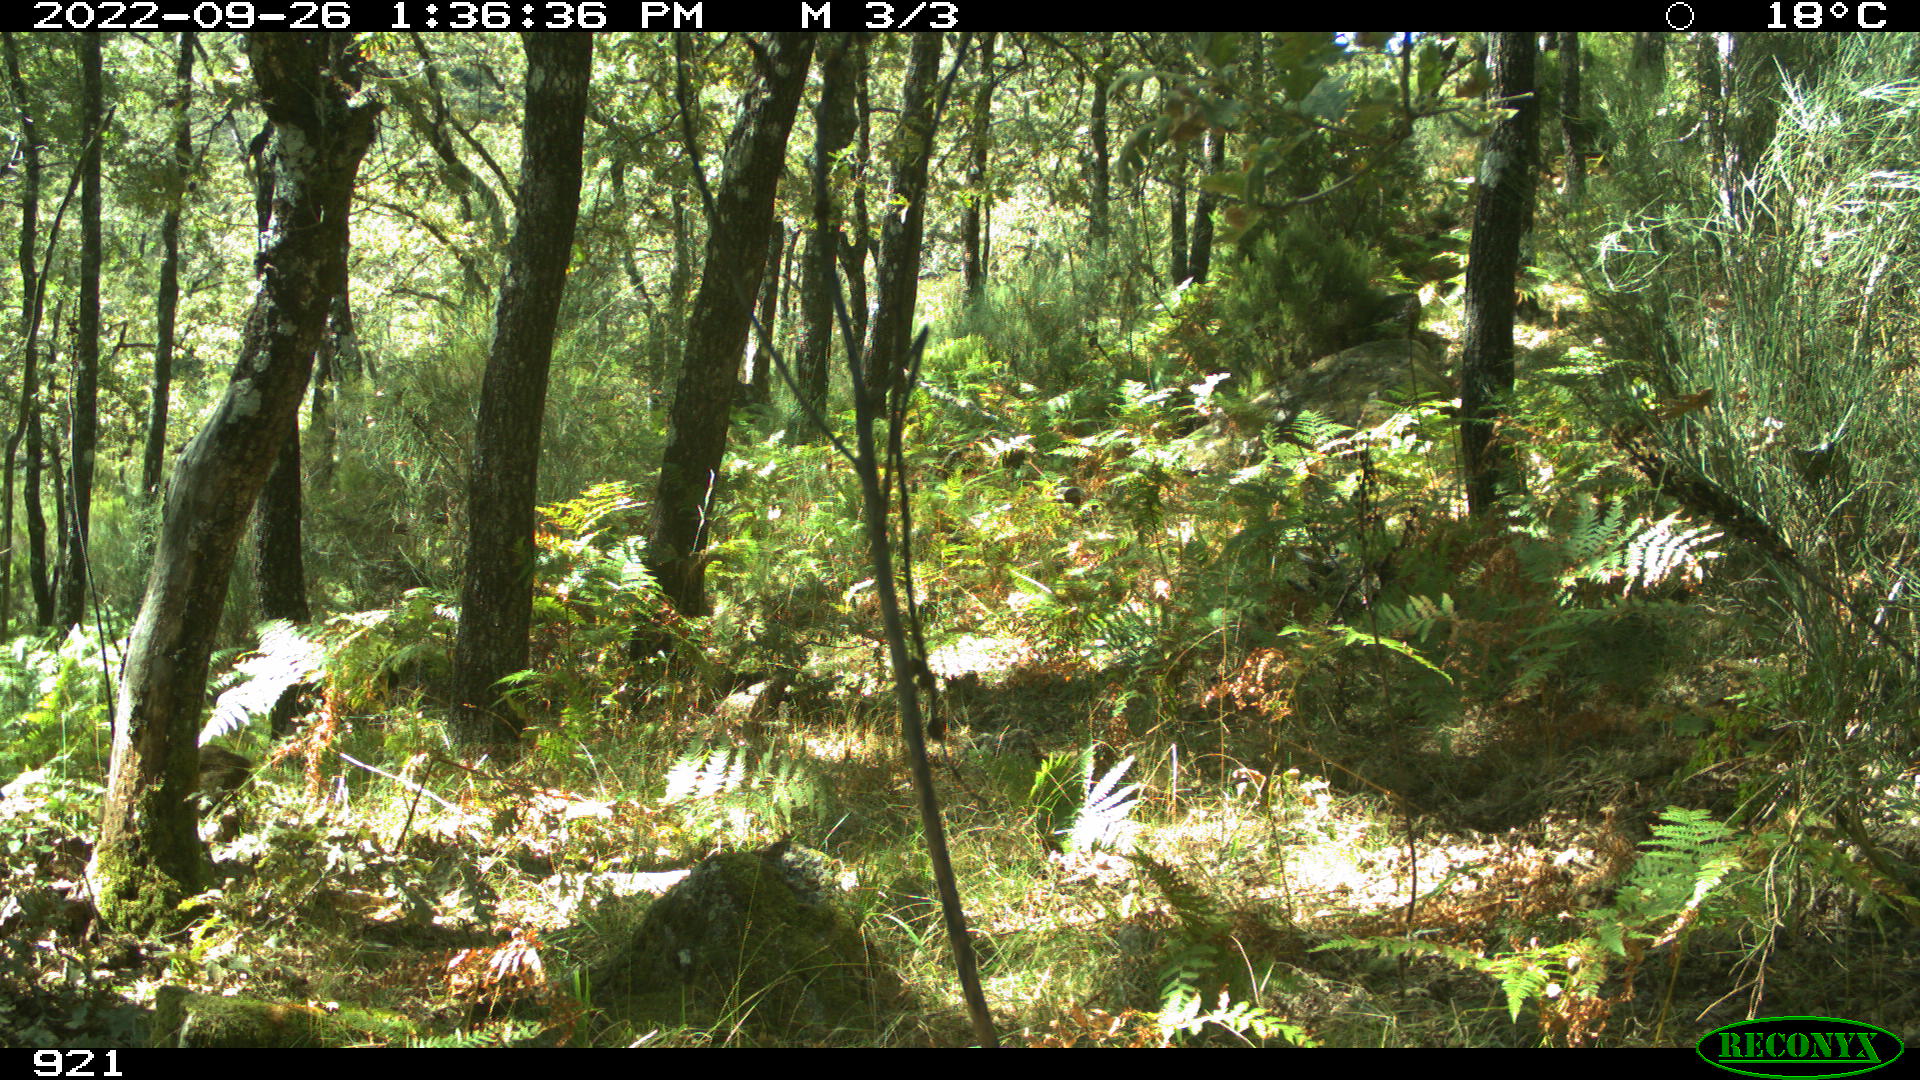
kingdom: Animalia
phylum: Chordata
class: Mammalia
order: Artiodactyla
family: Suidae
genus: Sus
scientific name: Sus scrofa
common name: Wild boar
